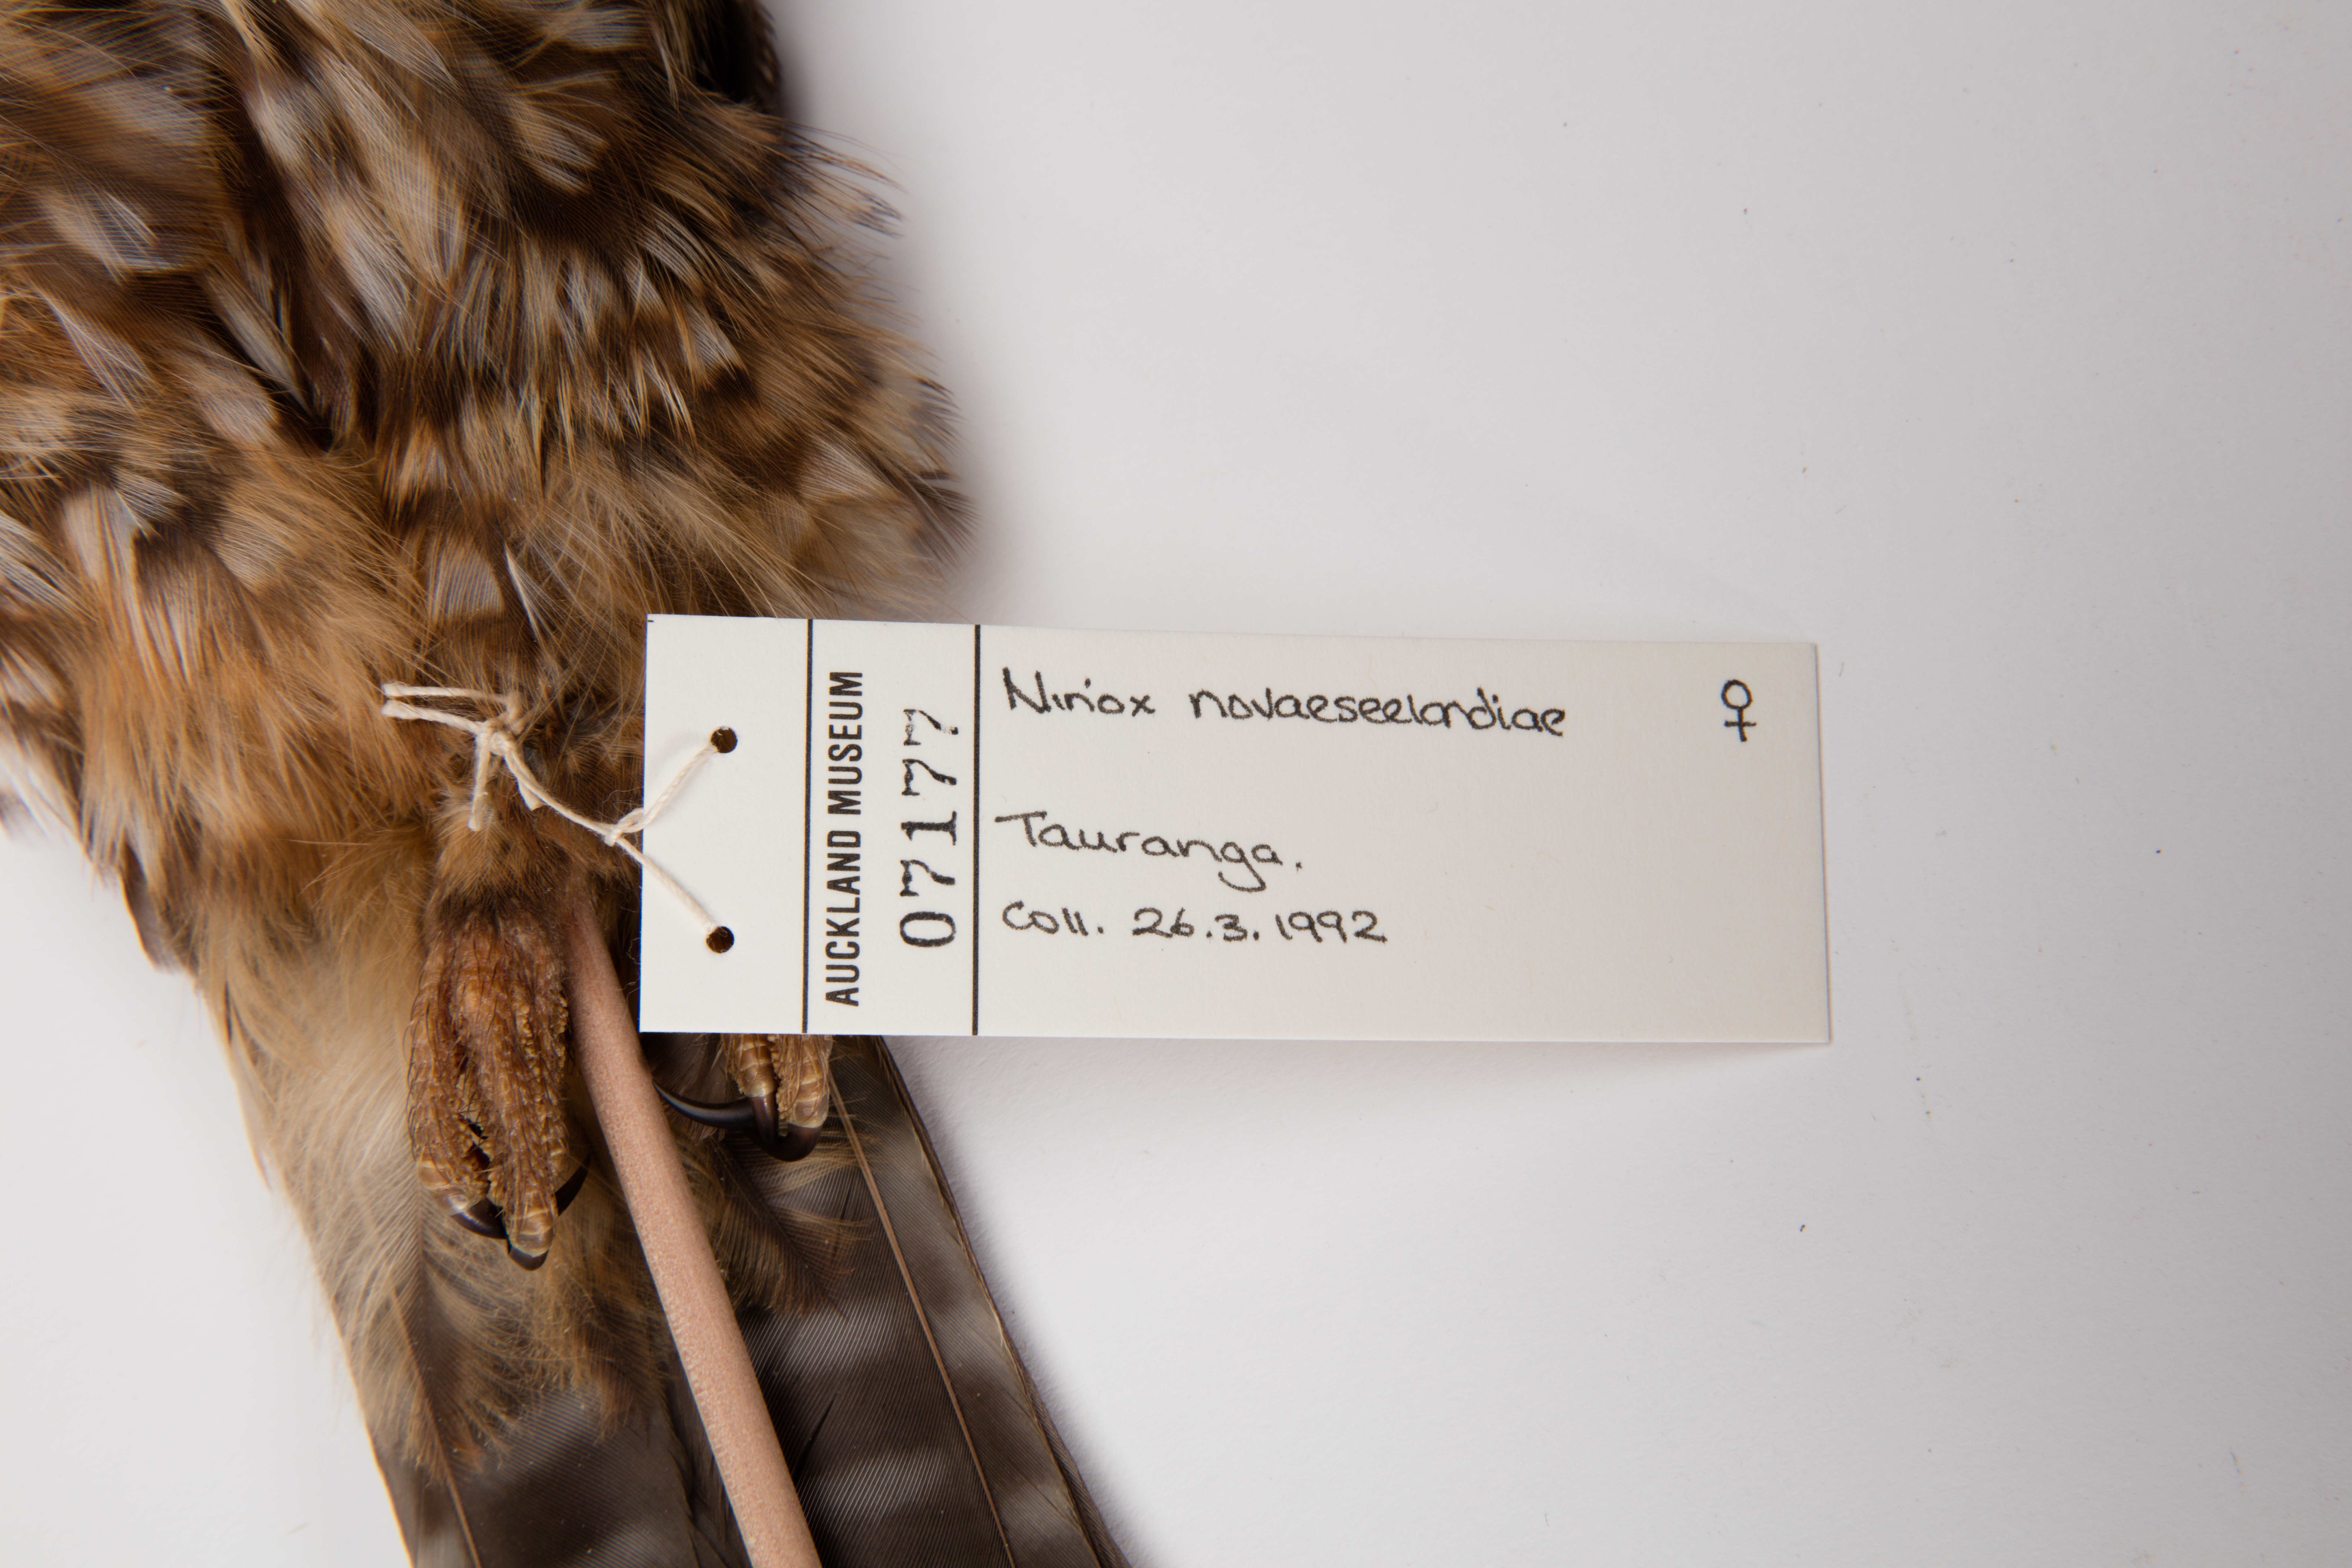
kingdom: Animalia
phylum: Chordata
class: Aves
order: Strigiformes
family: Strigidae
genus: Ninox
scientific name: Ninox novaeseelandiae
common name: Morepork
